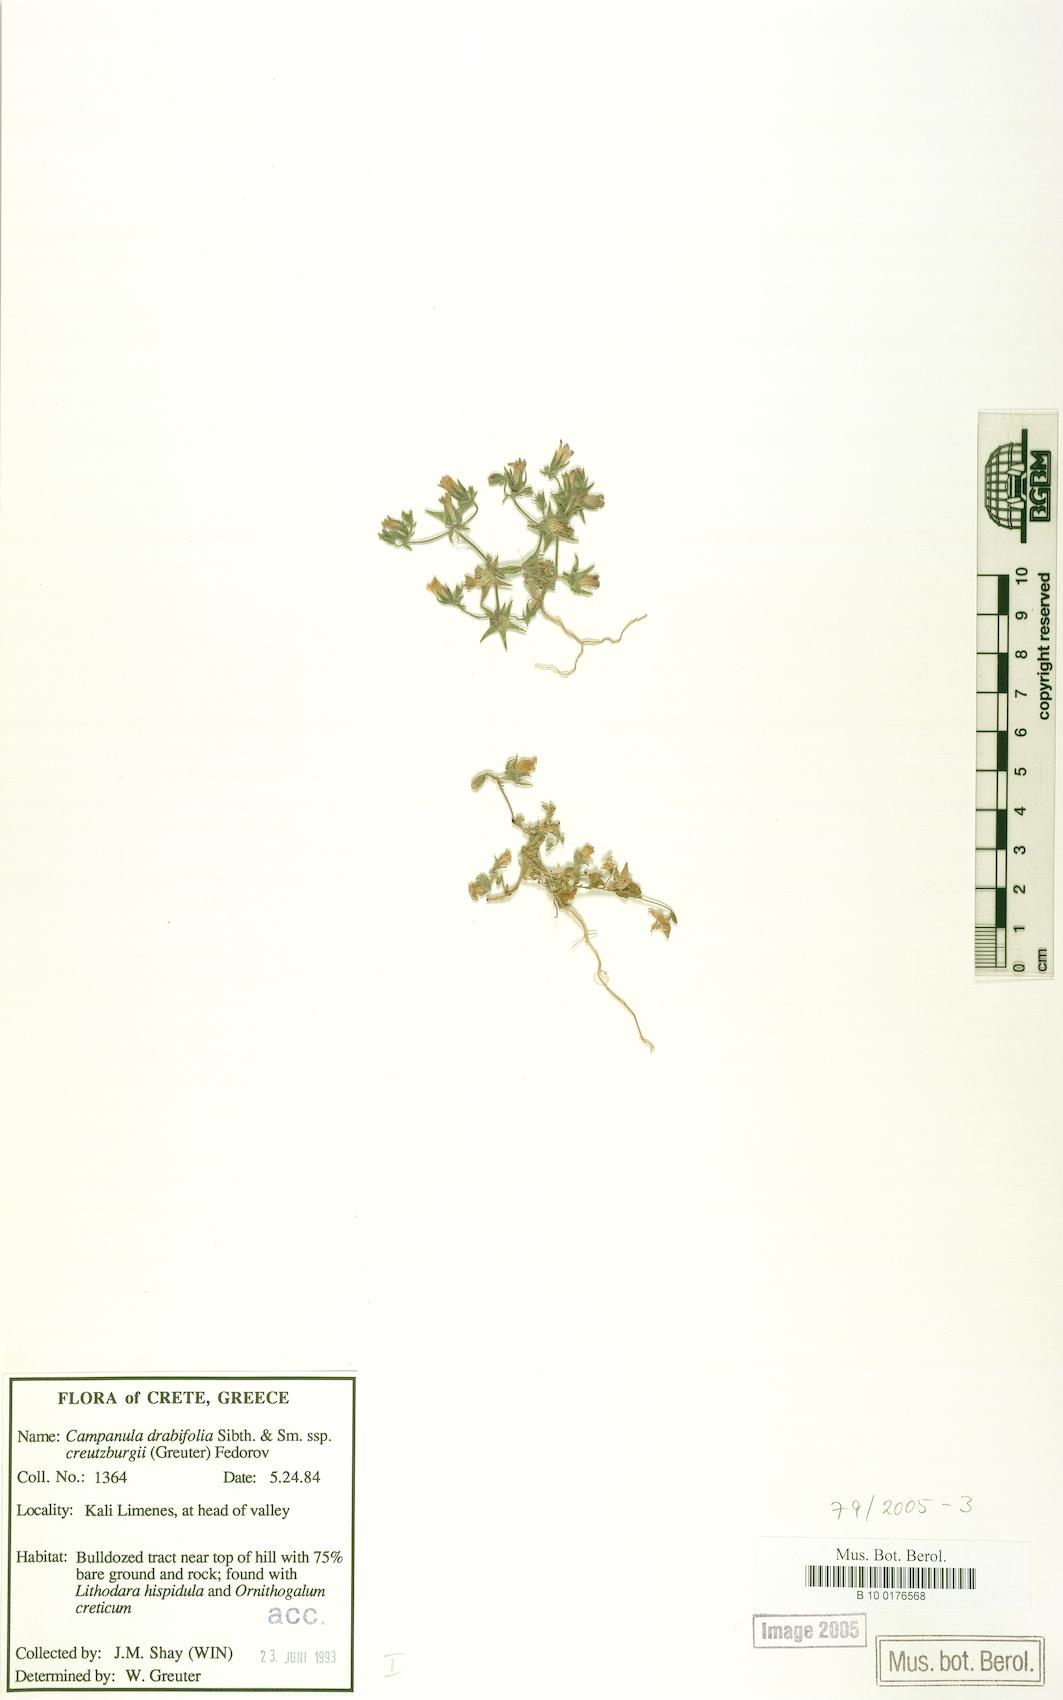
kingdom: Plantae
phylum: Tracheophyta
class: Magnoliopsida
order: Asterales
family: Campanulaceae
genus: Campanula
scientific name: Campanula creutzburgii
